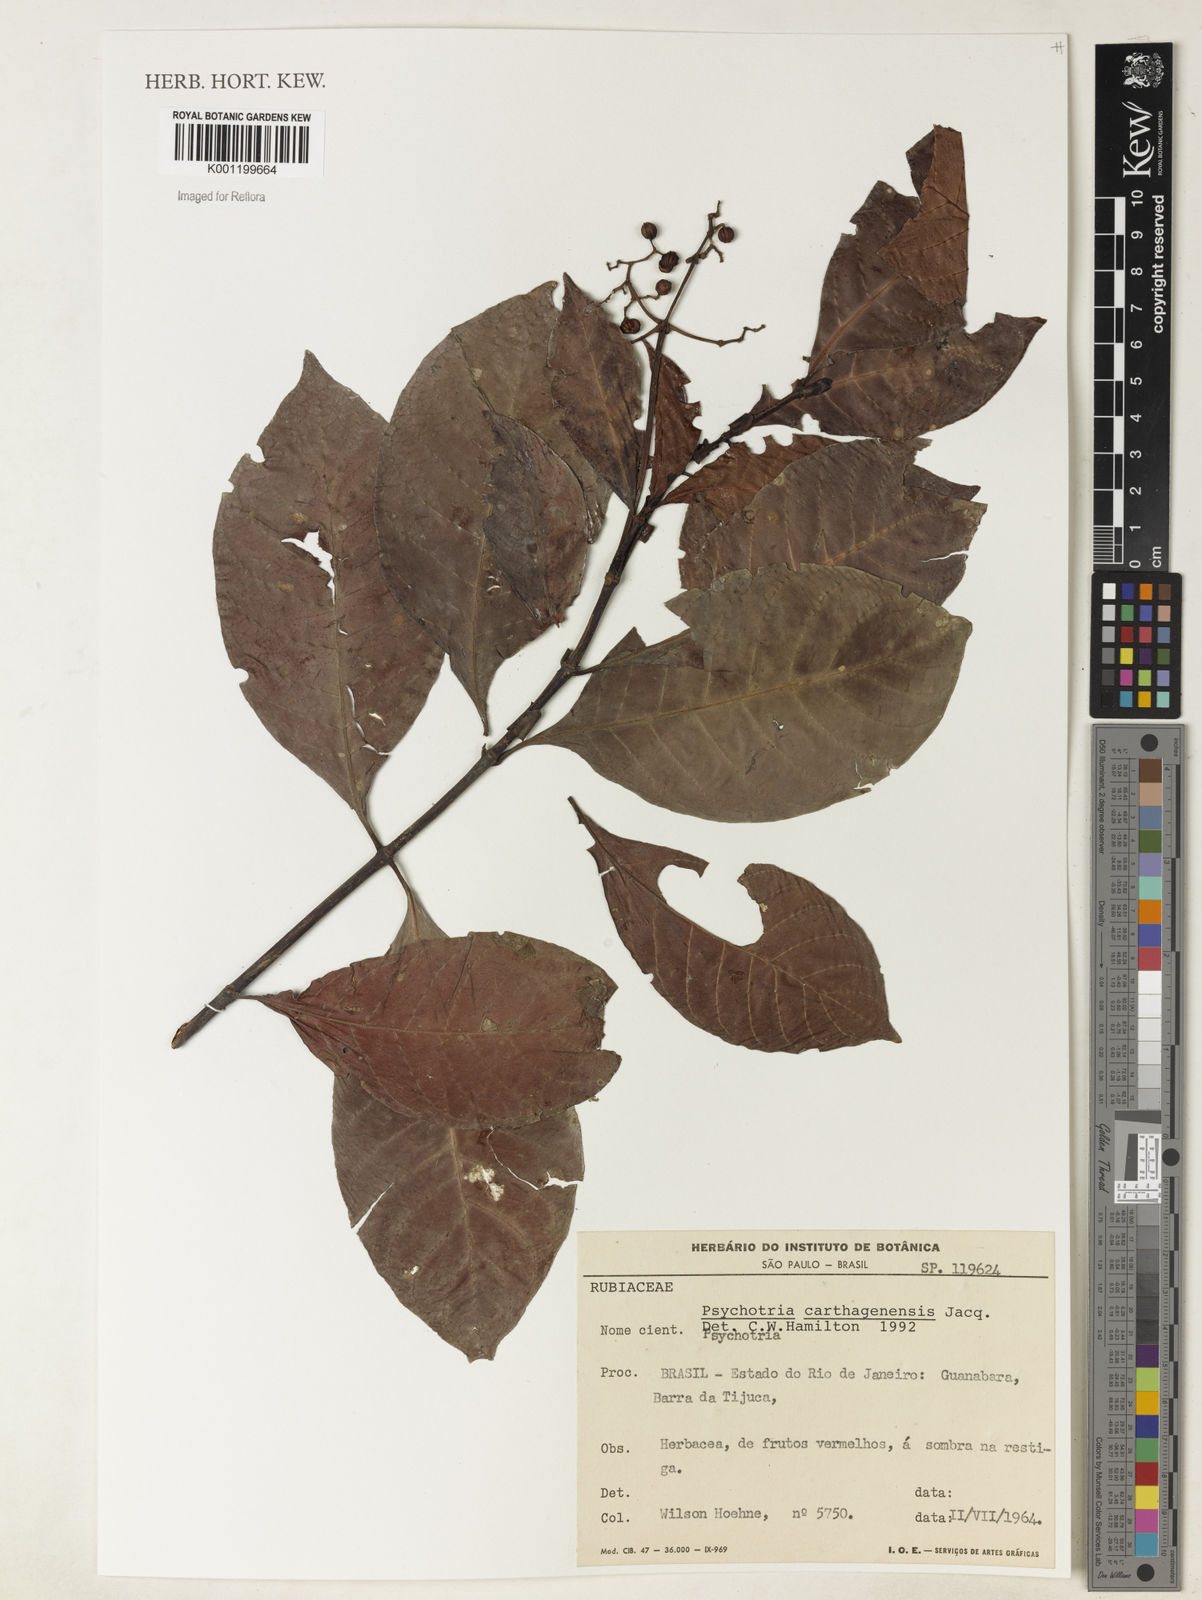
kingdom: Plantae
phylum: Tracheophyta
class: Magnoliopsida
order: Gentianales
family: Rubiaceae
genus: Psychotria
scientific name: Psychotria carthagenensis
